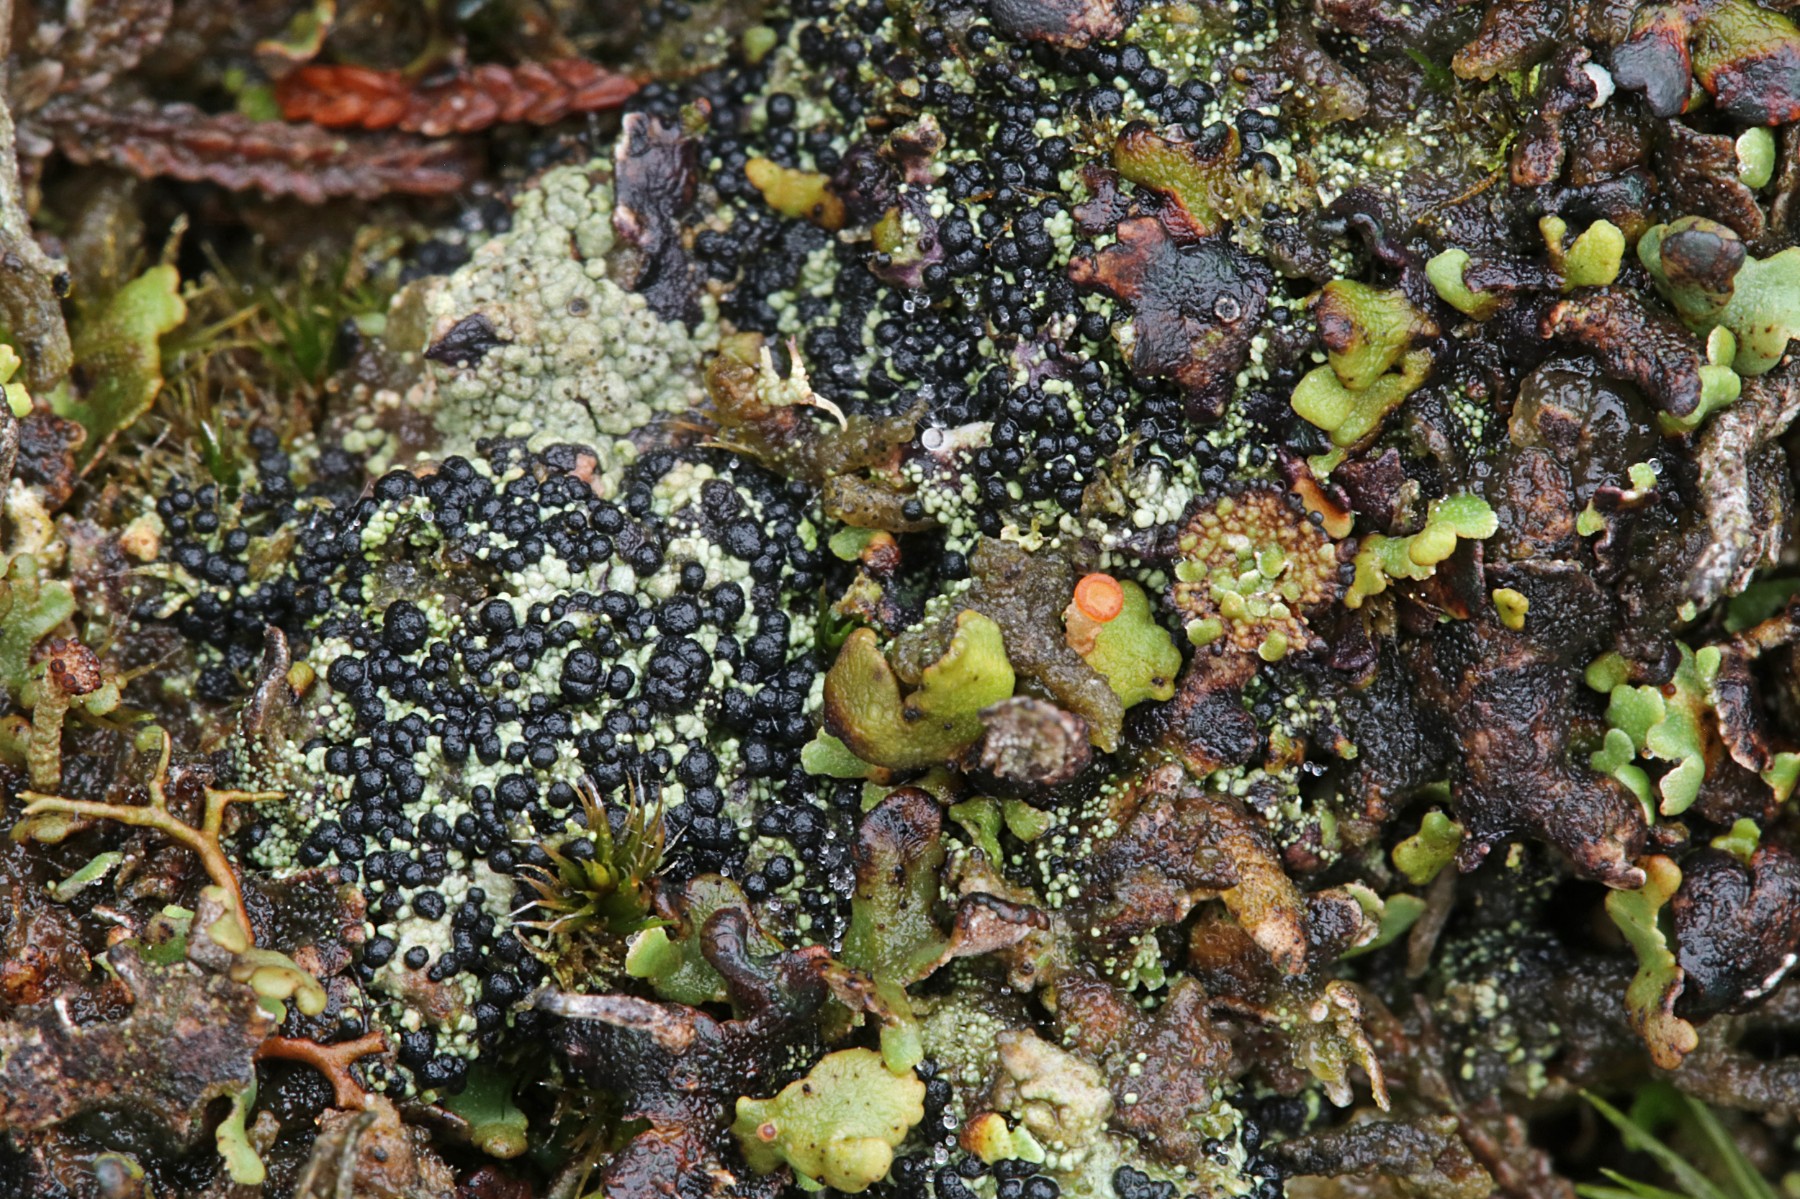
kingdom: Fungi
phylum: Ascomycota
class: Lecanoromycetes
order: Lecanorales
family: Byssolomataceae
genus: Micarea
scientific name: Micarea lignaria
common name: tørve-knaplav
